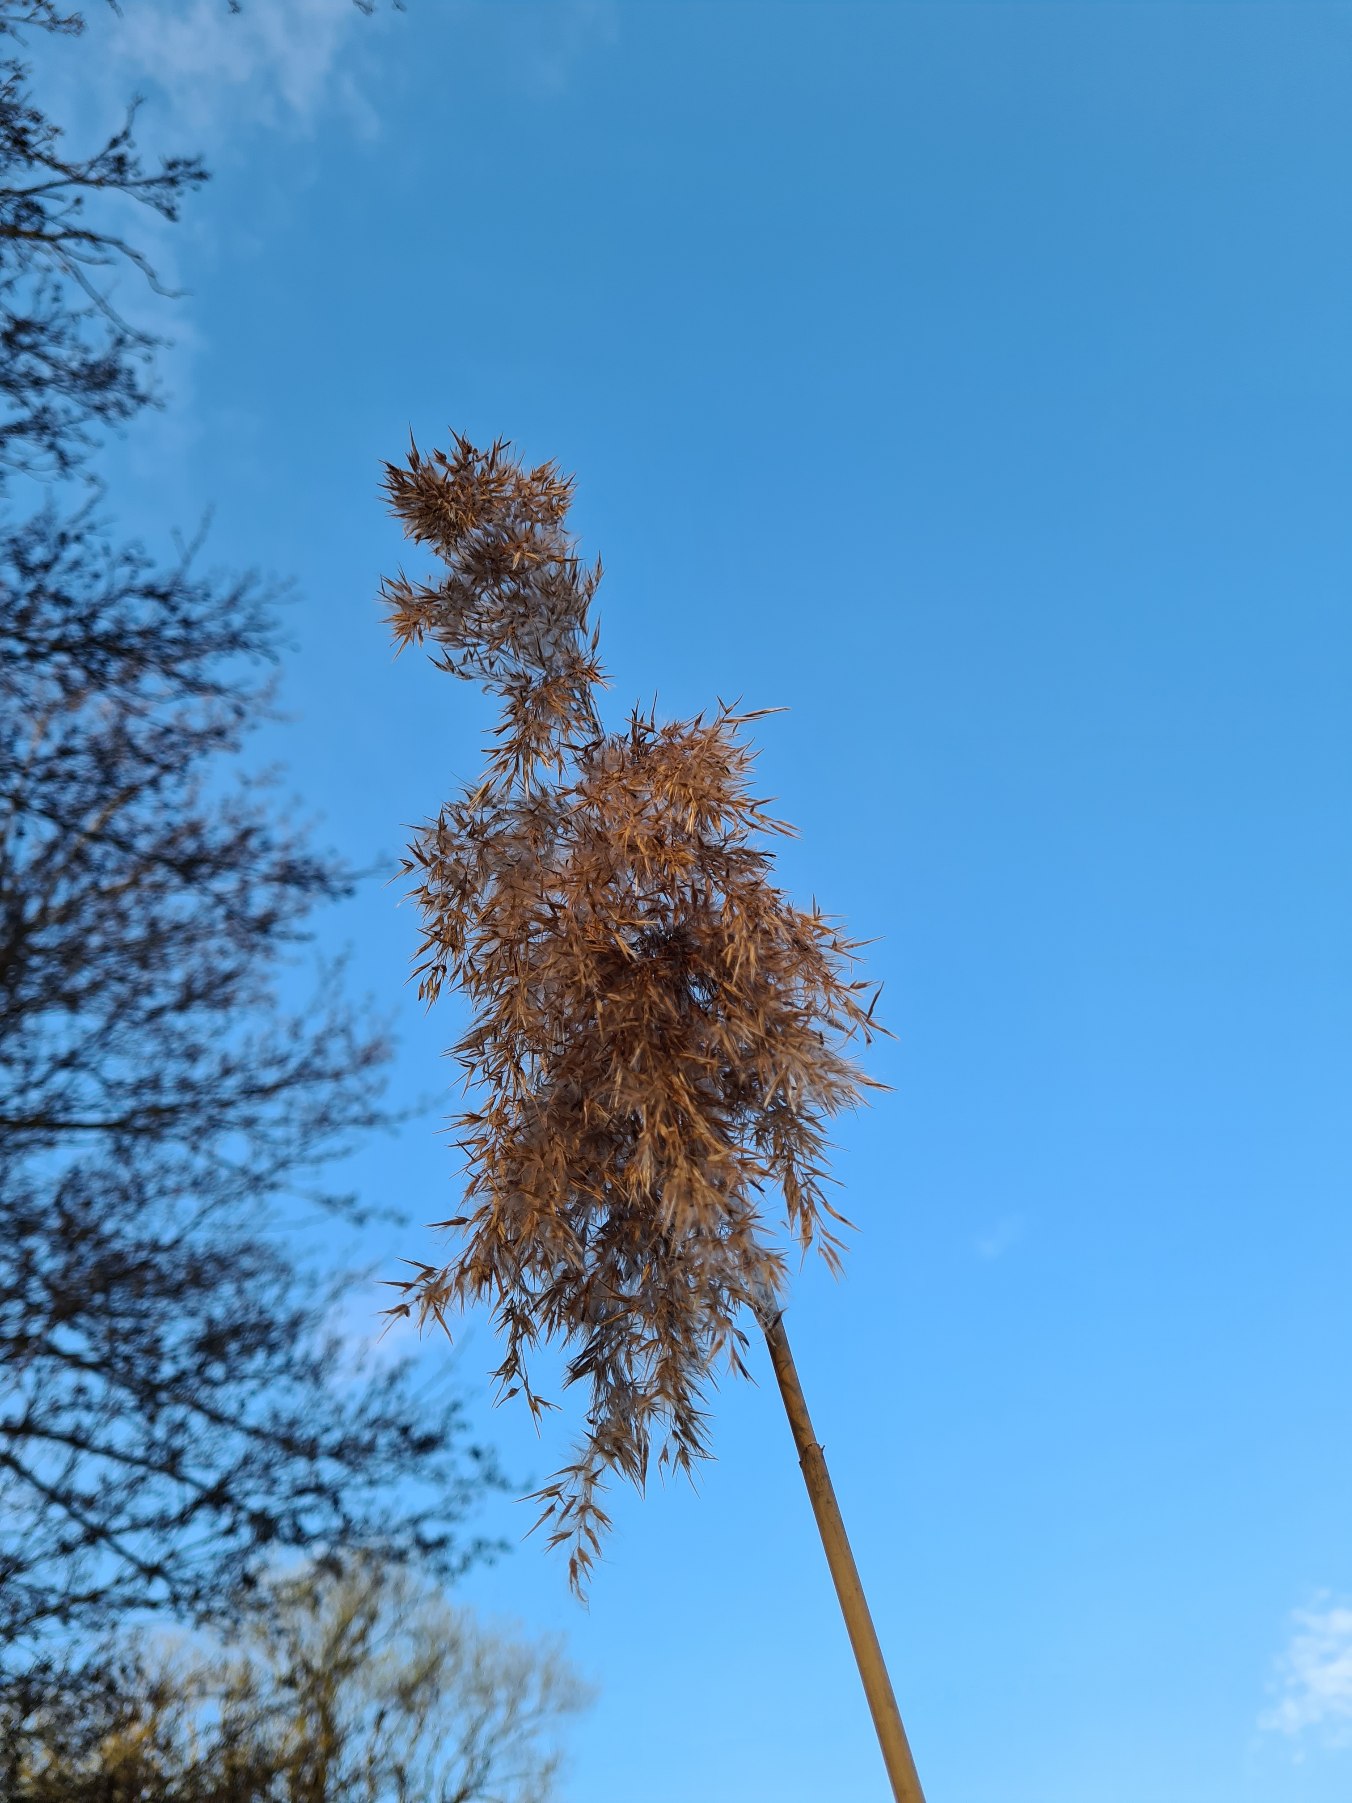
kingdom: Plantae
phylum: Tracheophyta
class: Liliopsida
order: Poales
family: Poaceae
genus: Phragmites
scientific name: Phragmites australis
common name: Tagrør
